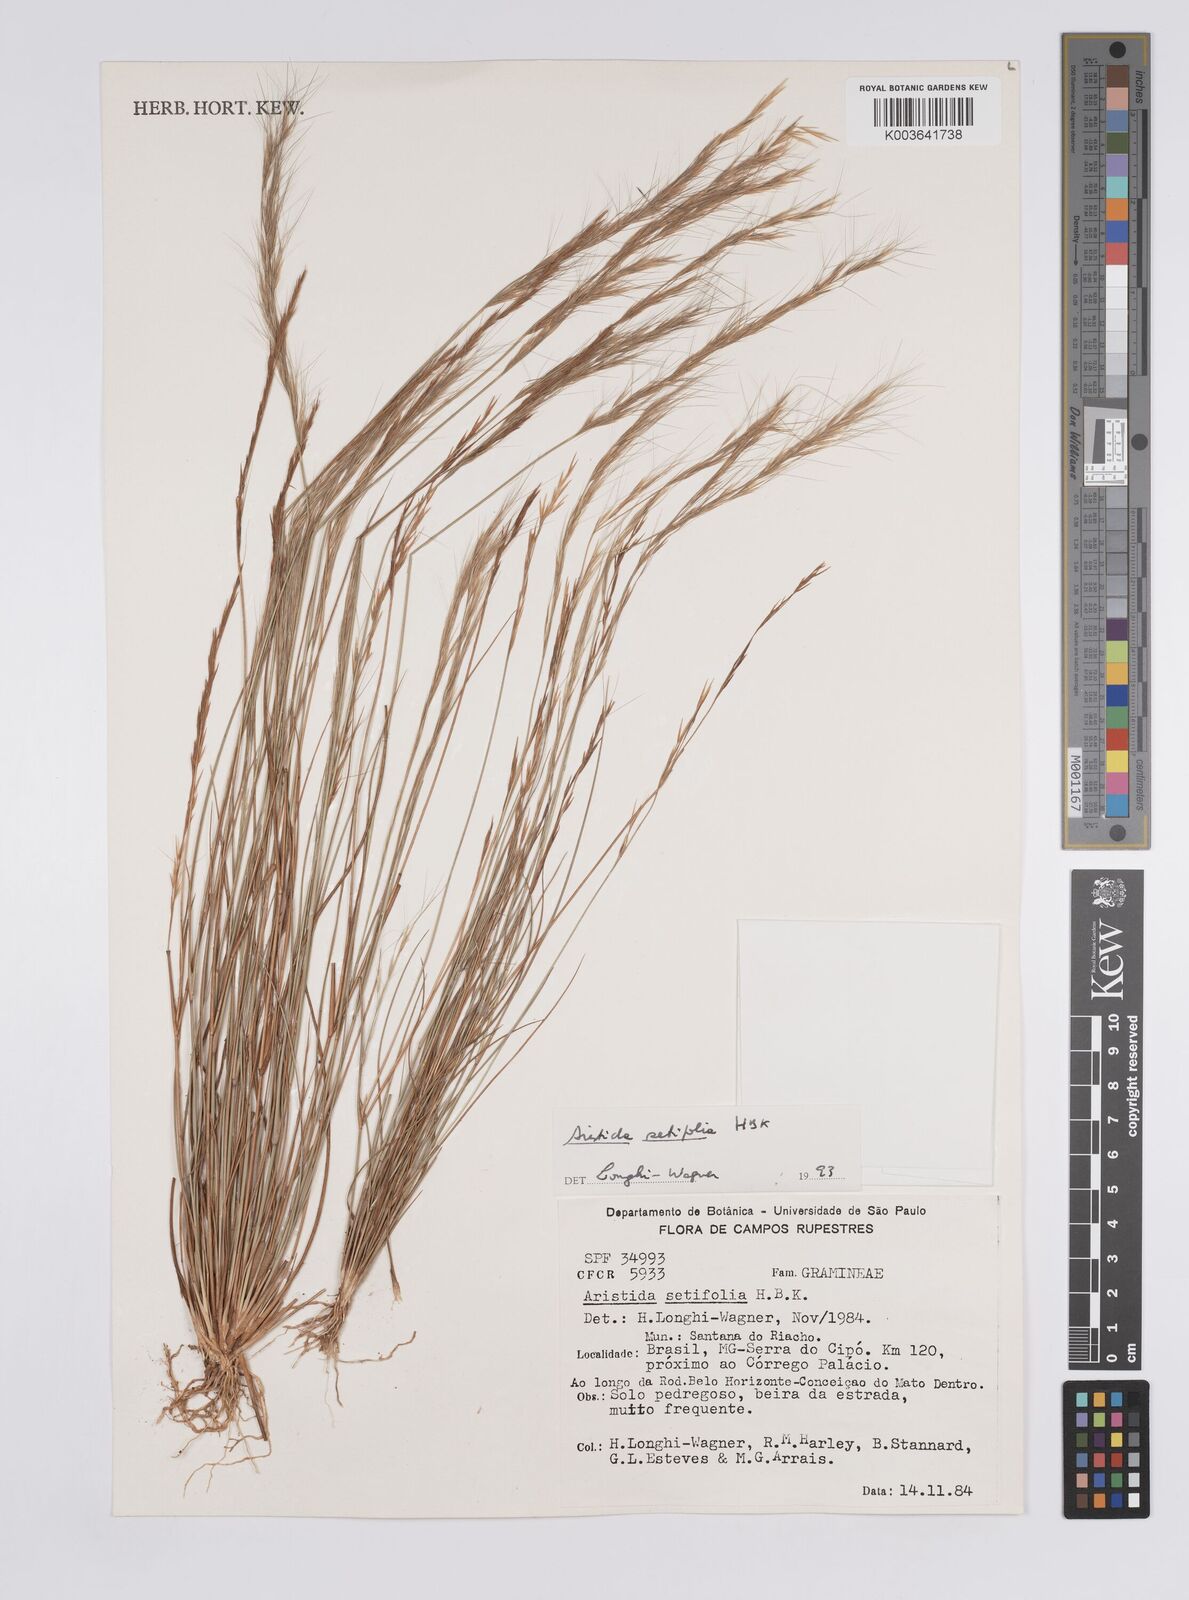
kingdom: Plantae
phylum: Tracheophyta
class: Liliopsida
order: Poales
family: Poaceae
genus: Aristida
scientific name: Aristida setifolia
